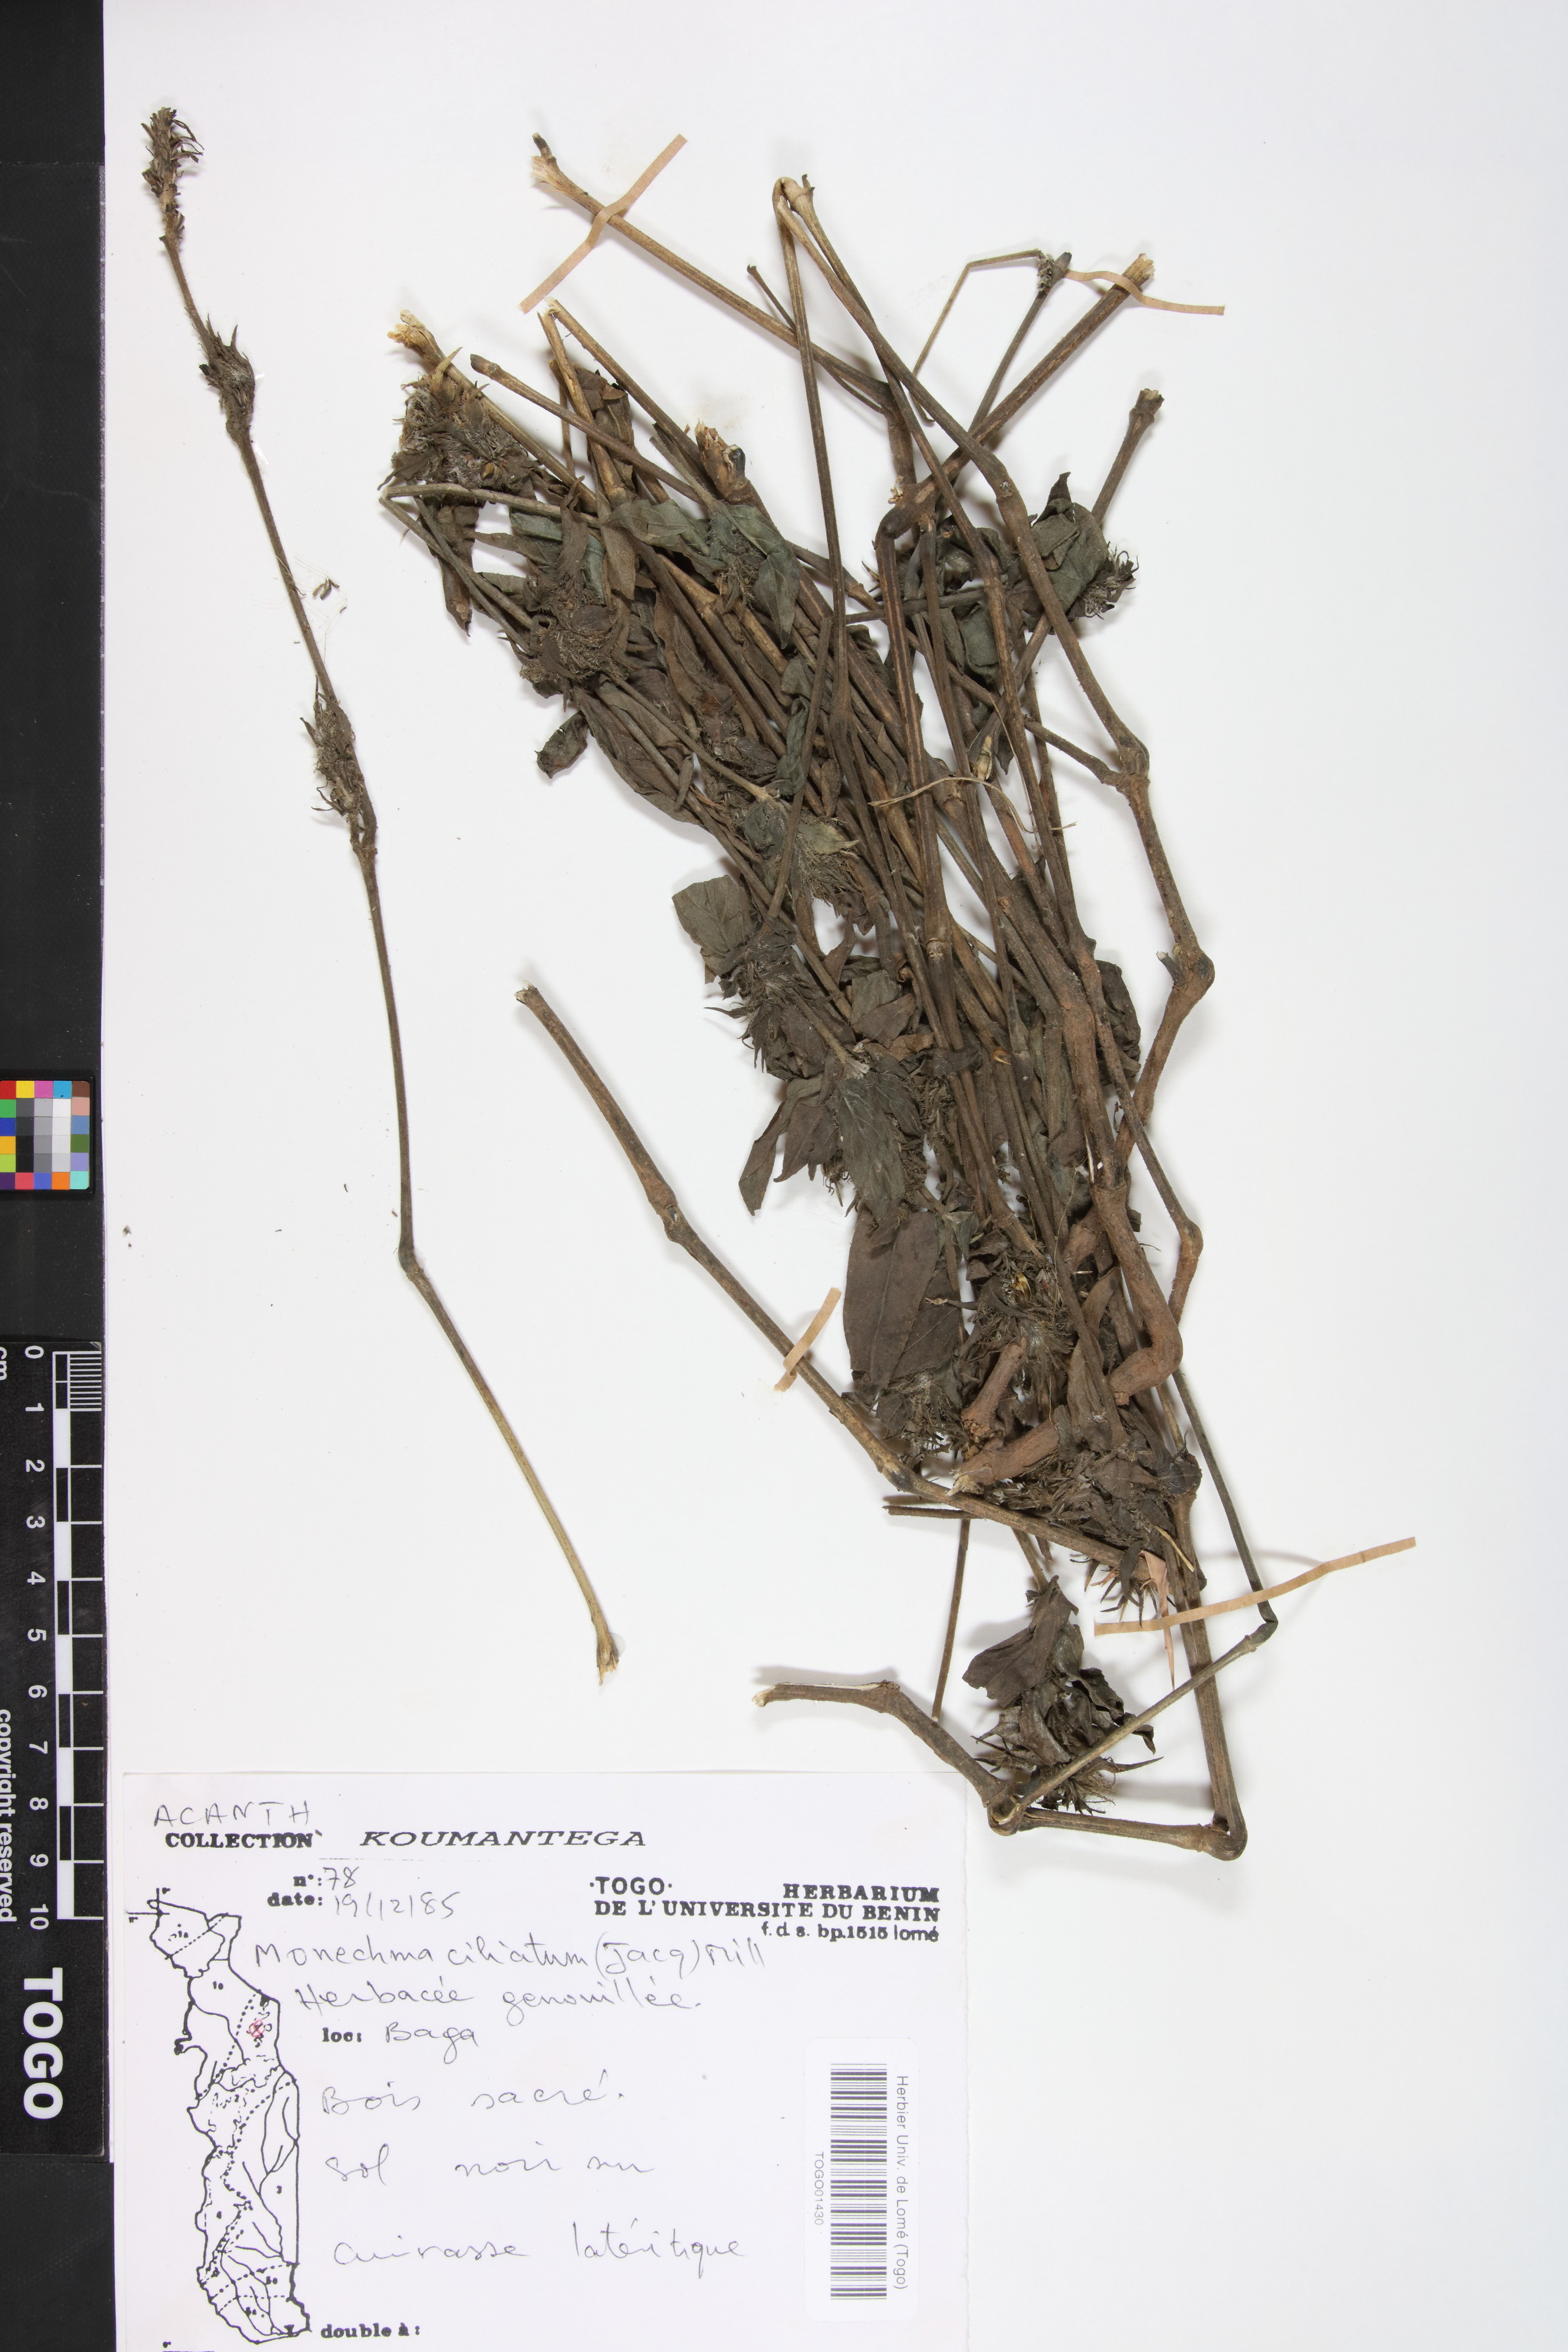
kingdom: Plantae
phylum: Tracheophyta
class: Magnoliopsida
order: Lamiales
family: Acanthaceae
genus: Pogonospermum
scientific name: Pogonospermum ciliare
